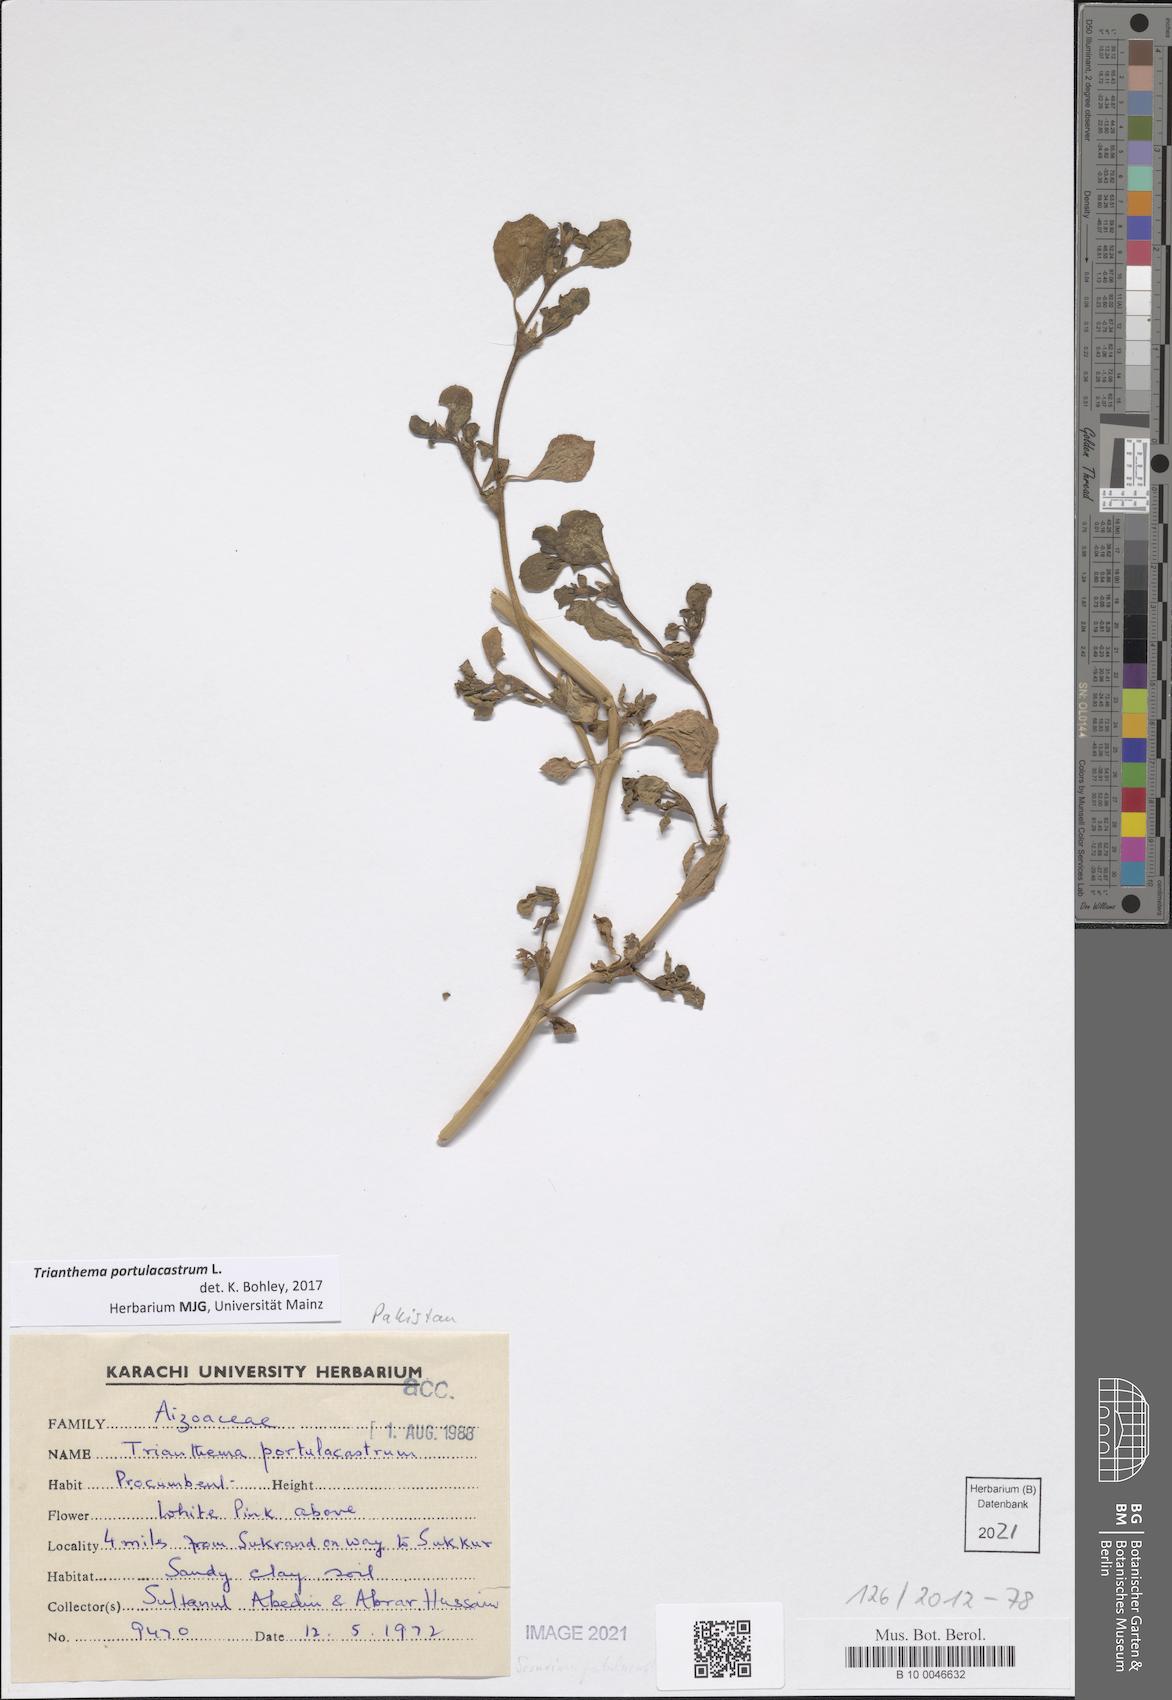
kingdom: Plantae
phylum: Tracheophyta
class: Magnoliopsida
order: Caryophyllales
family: Aizoaceae
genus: Trianthema
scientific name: Trianthema portulacastrum
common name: Desert horsepurslane
